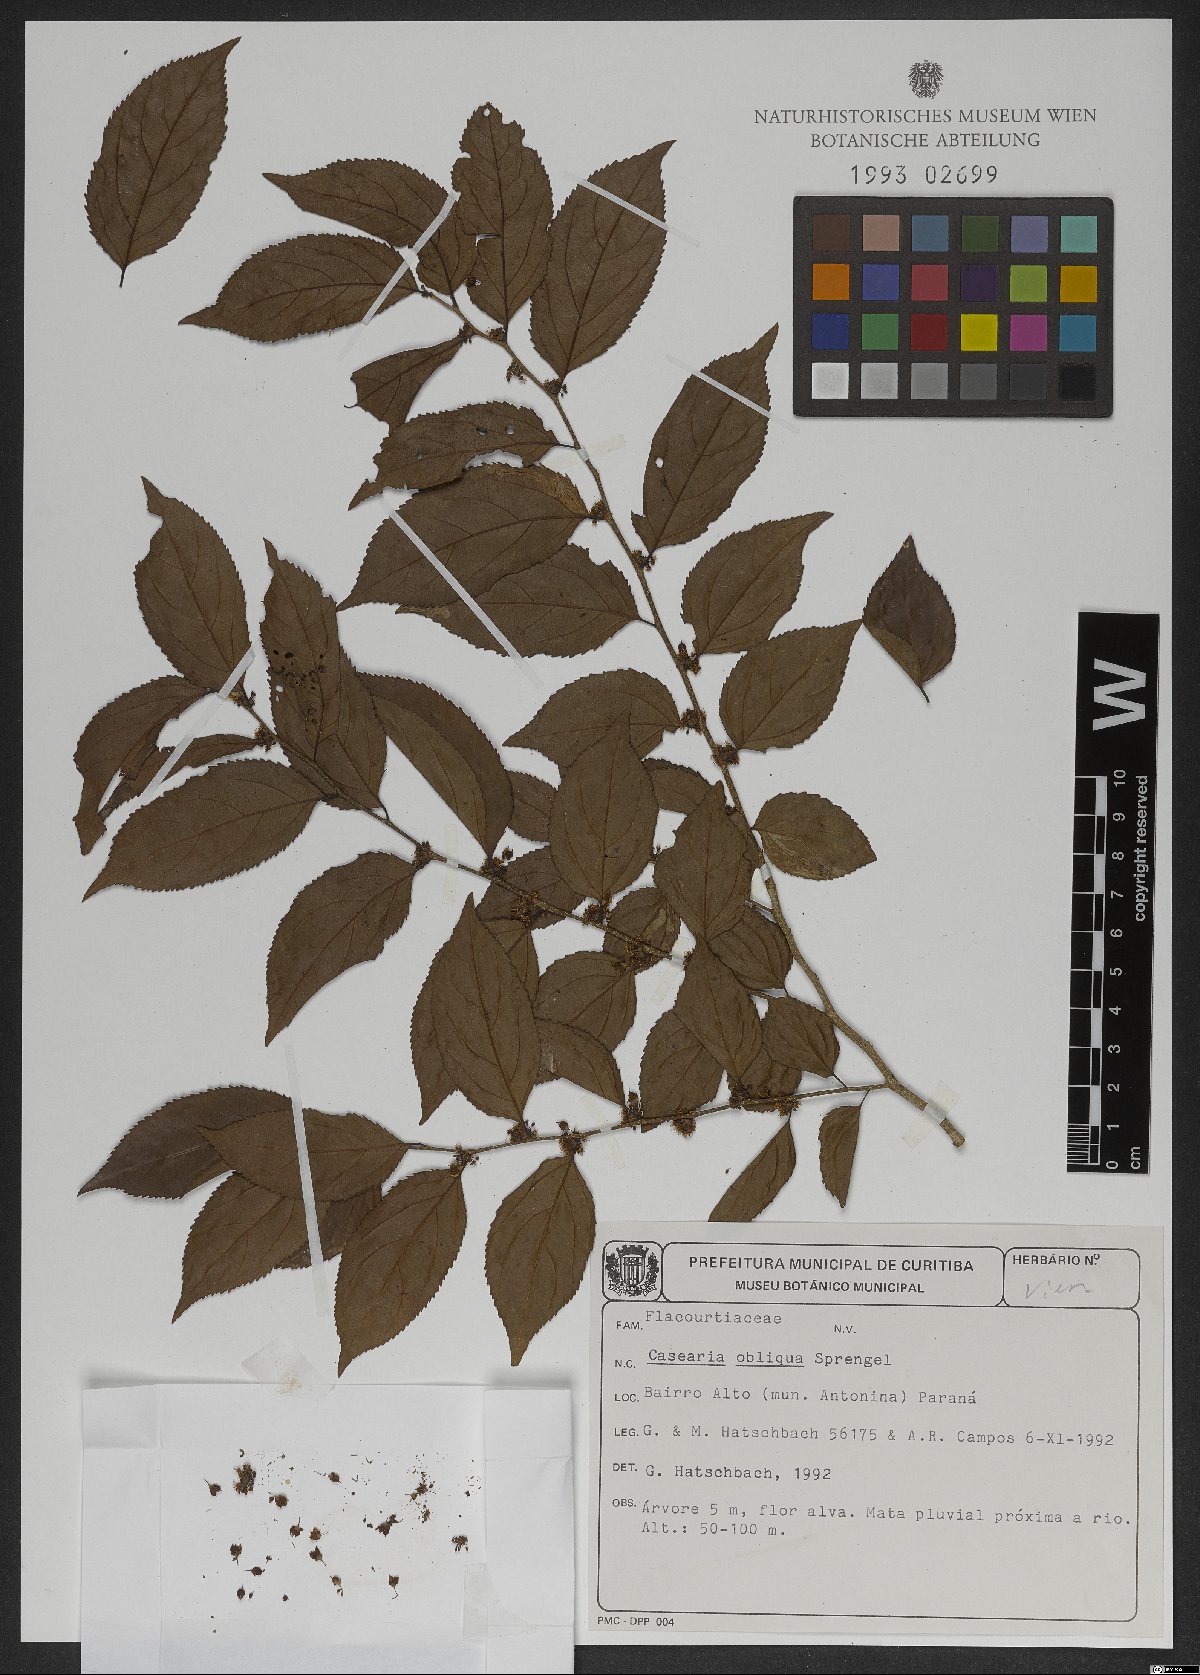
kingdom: Plantae
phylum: Tracheophyta
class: Magnoliopsida
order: Malpighiales
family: Salicaceae
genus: Casearia
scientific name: Casearia obliqua
